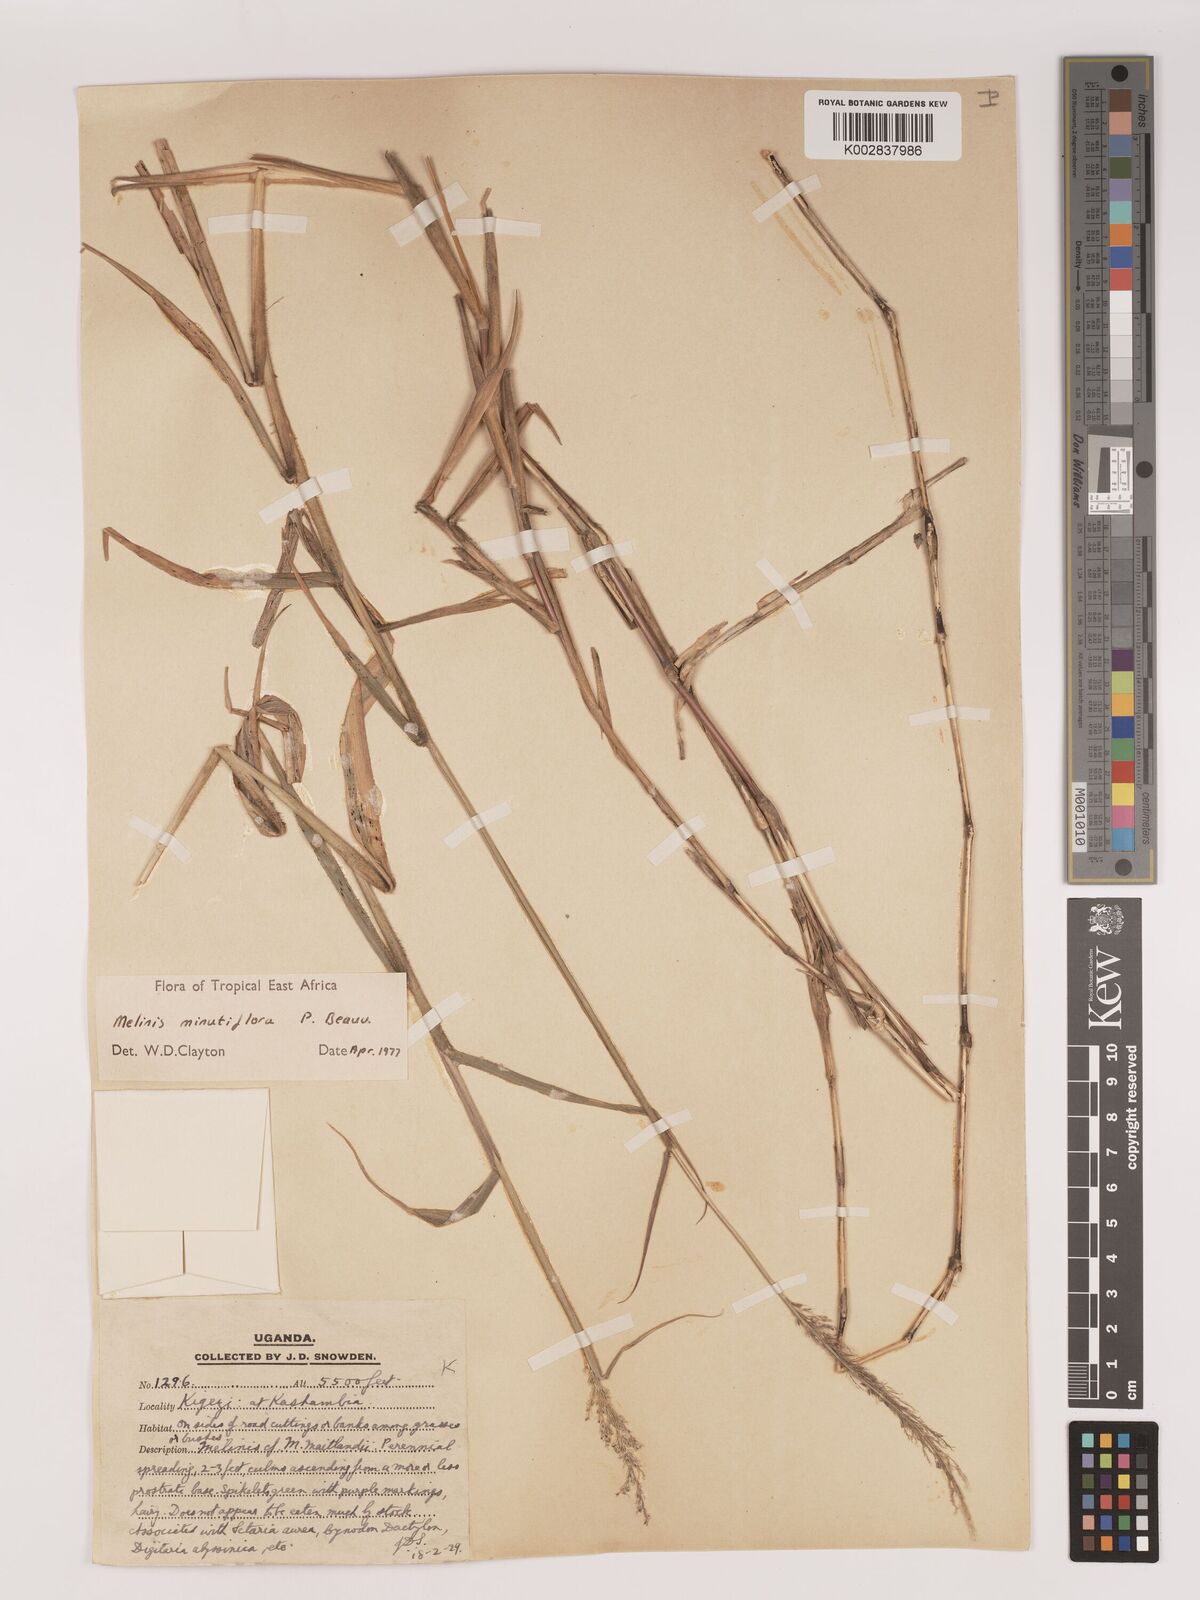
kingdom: Plantae
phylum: Tracheophyta
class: Liliopsida
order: Poales
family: Poaceae
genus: Melinis
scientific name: Melinis minutiflora
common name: Molassesgrass
